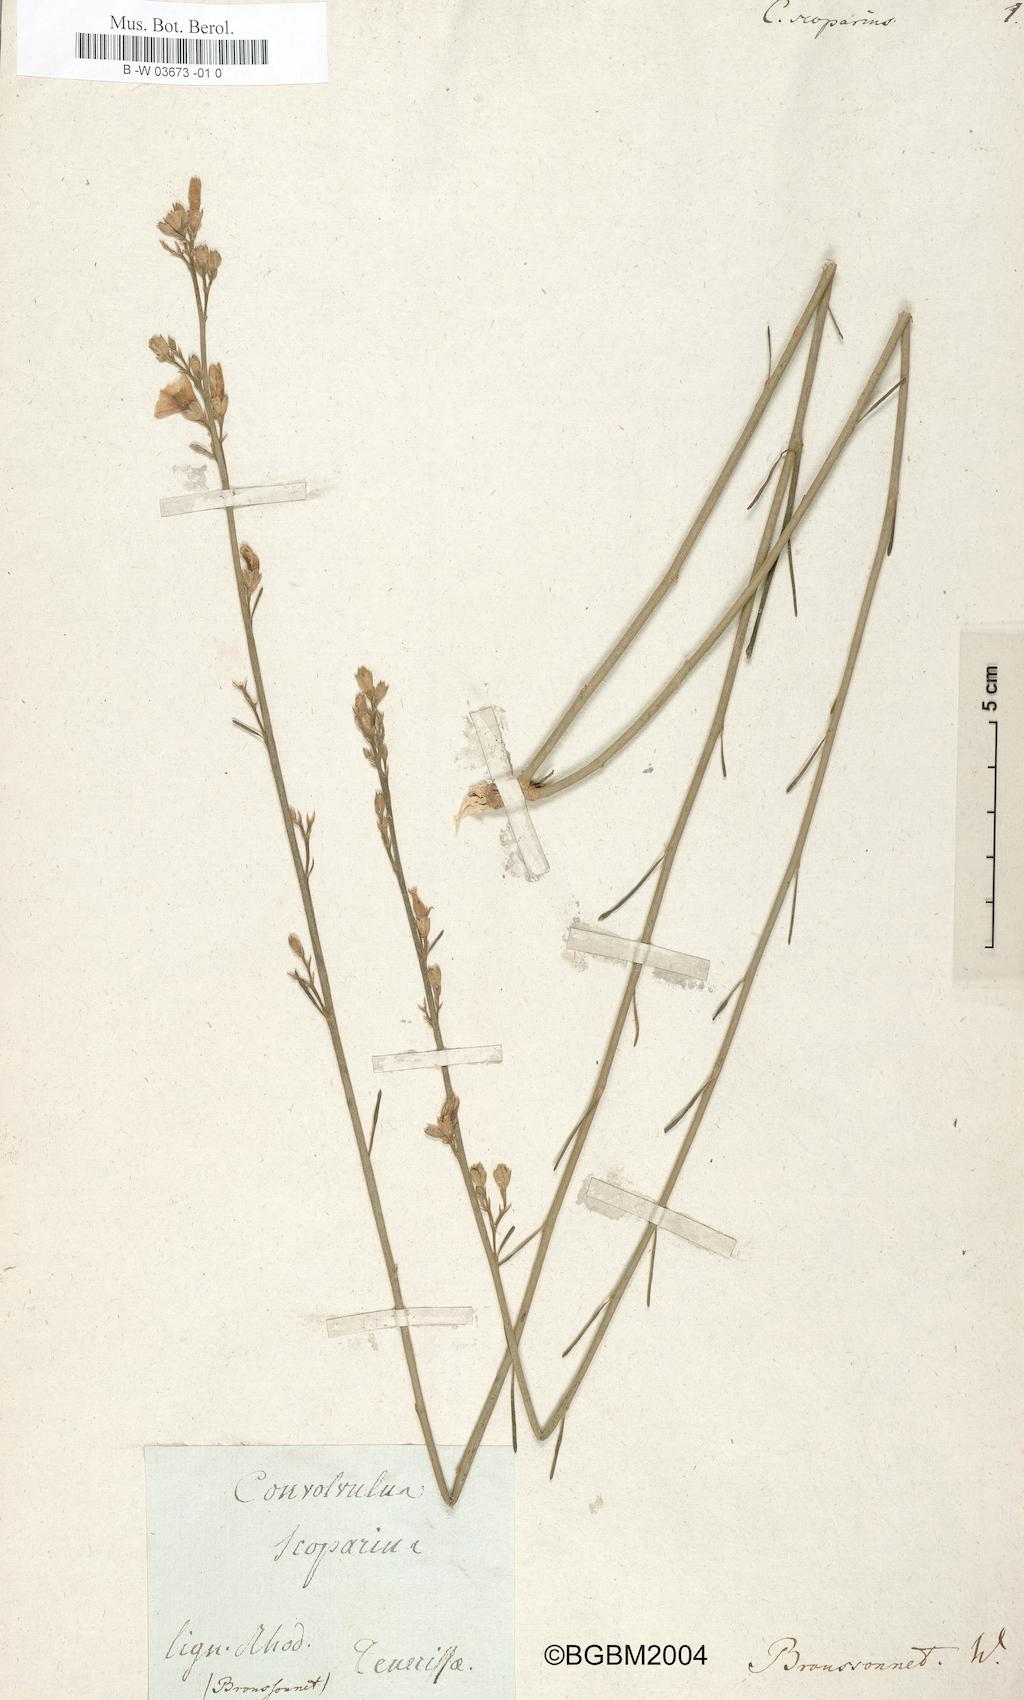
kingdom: Plantae
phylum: Tracheophyta
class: Magnoliopsida
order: Solanales
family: Convolvulaceae
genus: Convolvulus
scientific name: Convolvulus scoparius
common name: Lignum rhodium
